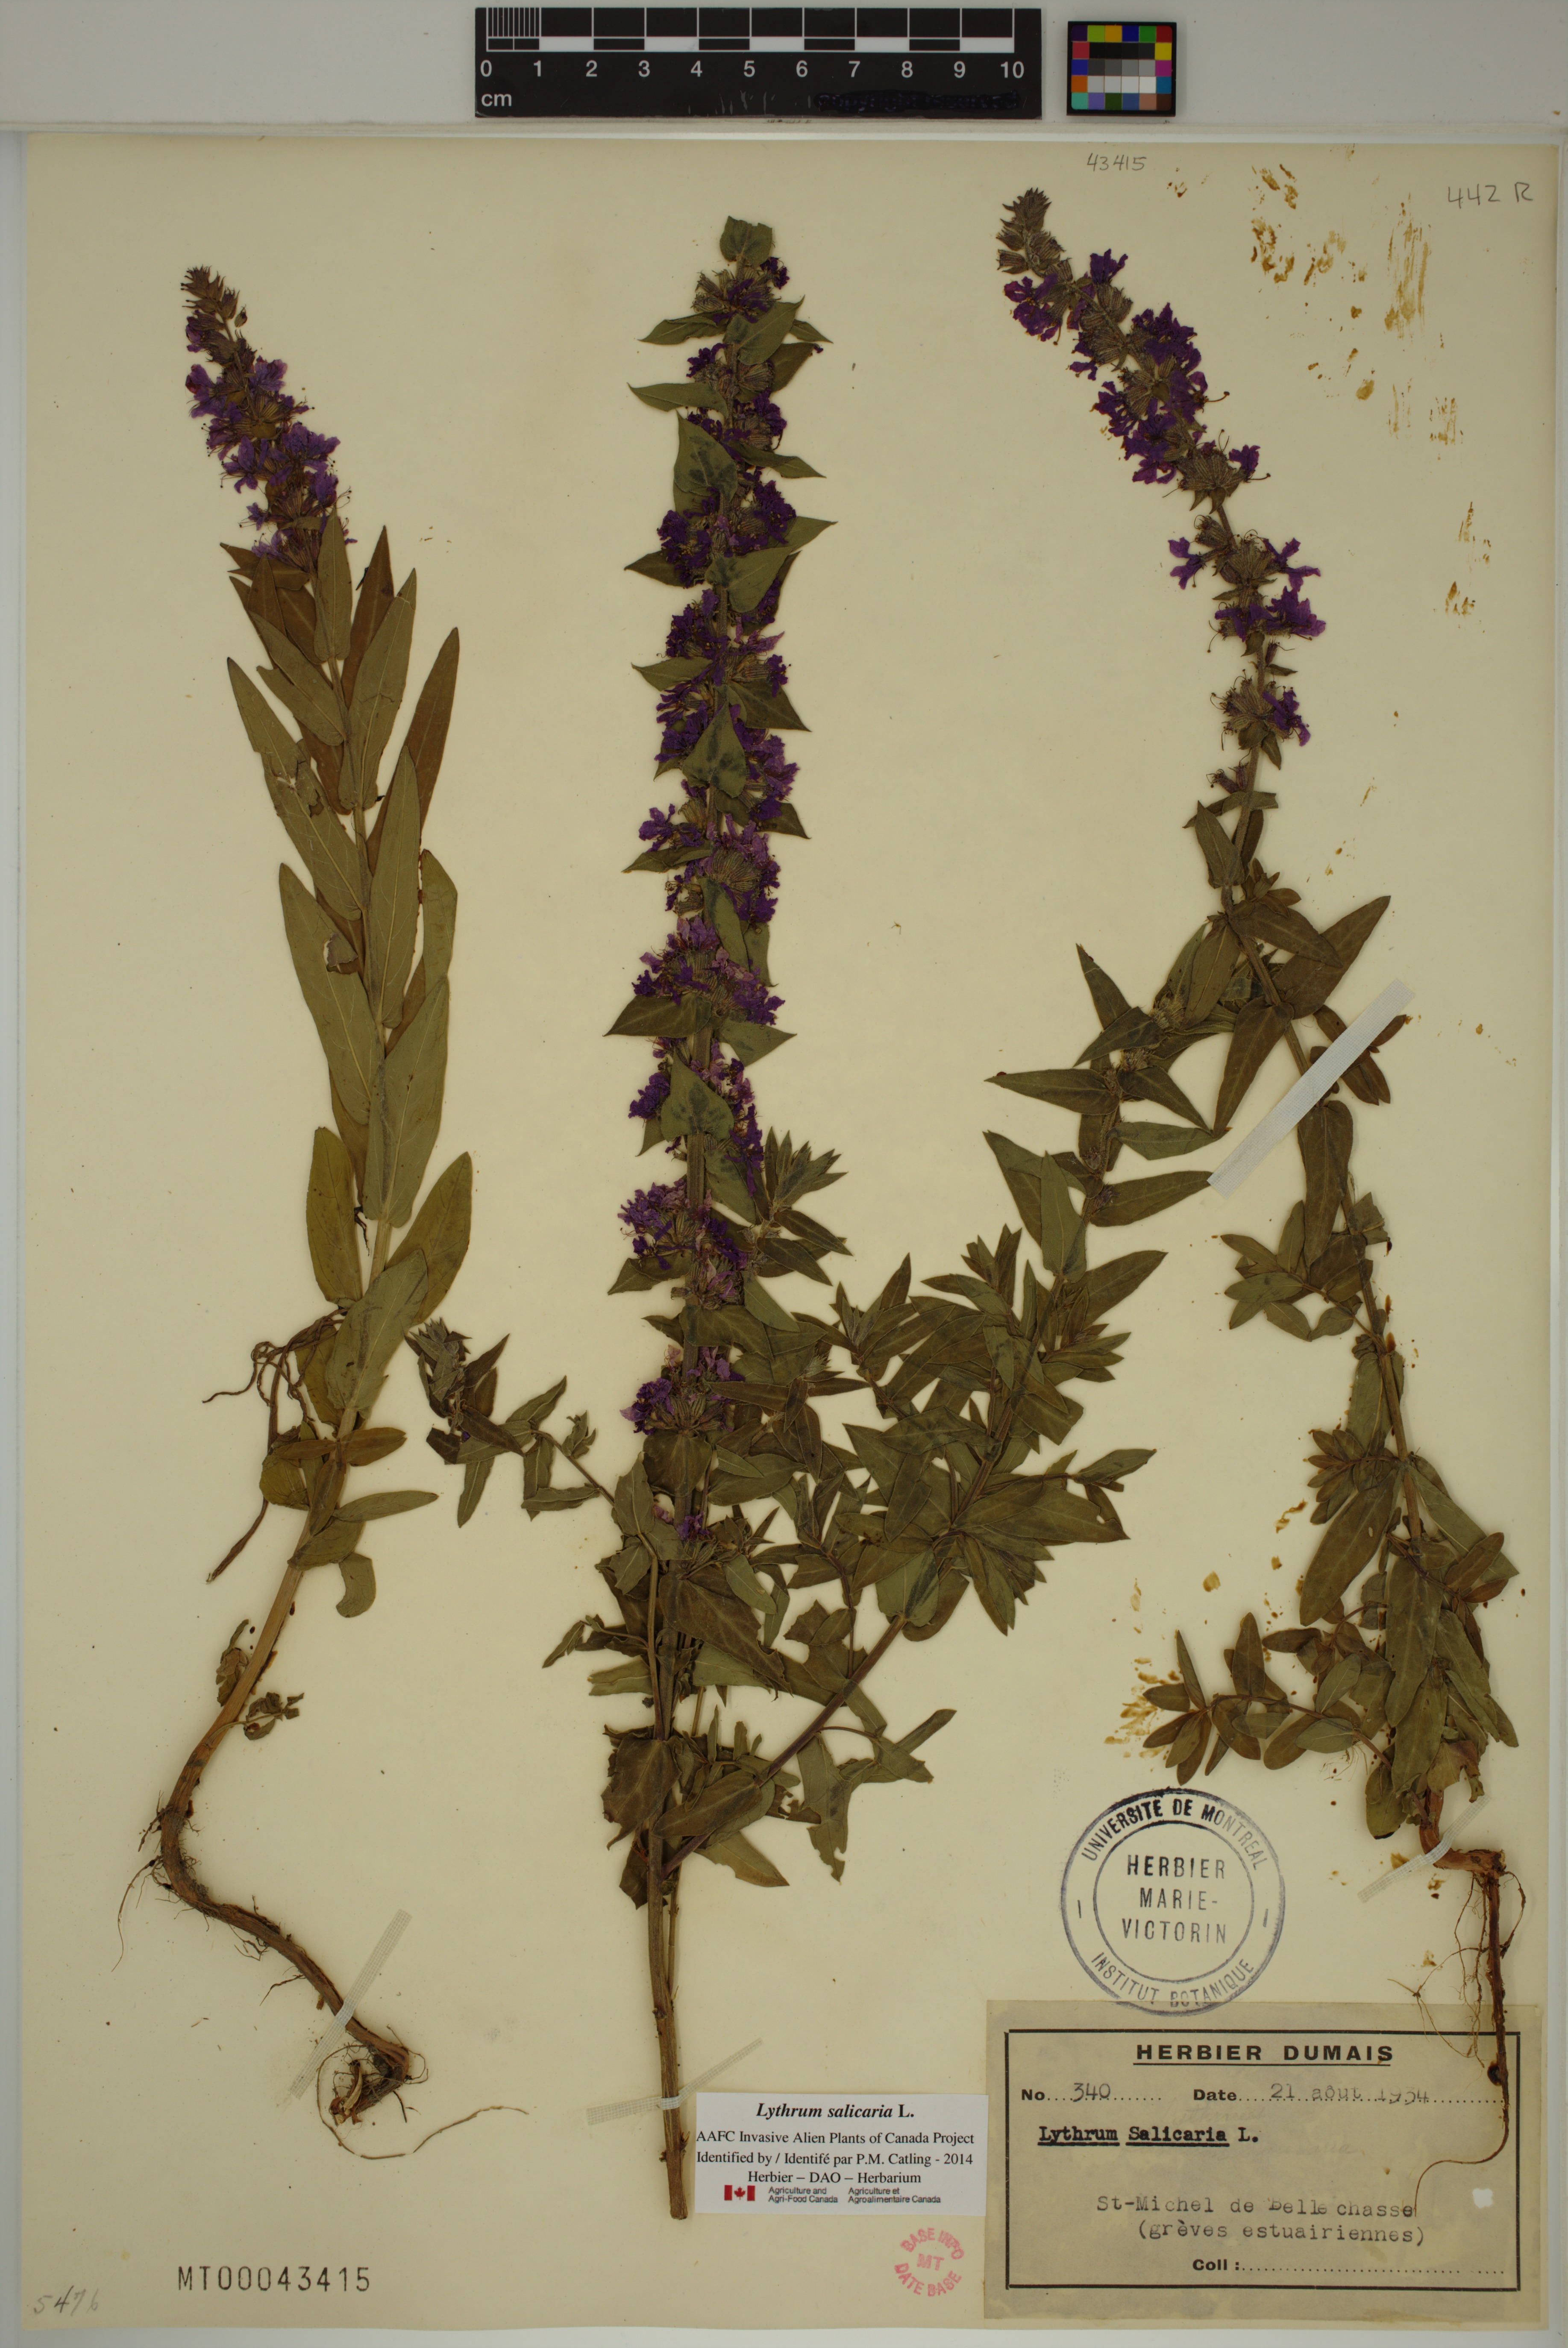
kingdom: Plantae
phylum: Tracheophyta
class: Magnoliopsida
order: Myrtales
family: Lythraceae
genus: Lythrum
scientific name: Lythrum salicaria
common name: Purple loosestrife
